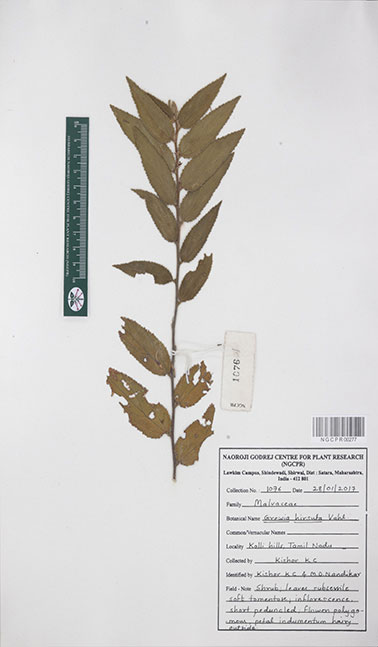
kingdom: Plantae
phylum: Tracheophyta
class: Magnoliopsida
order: Malvales
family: Malvaceae
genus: Grewia
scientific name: Grewia hirsuta
